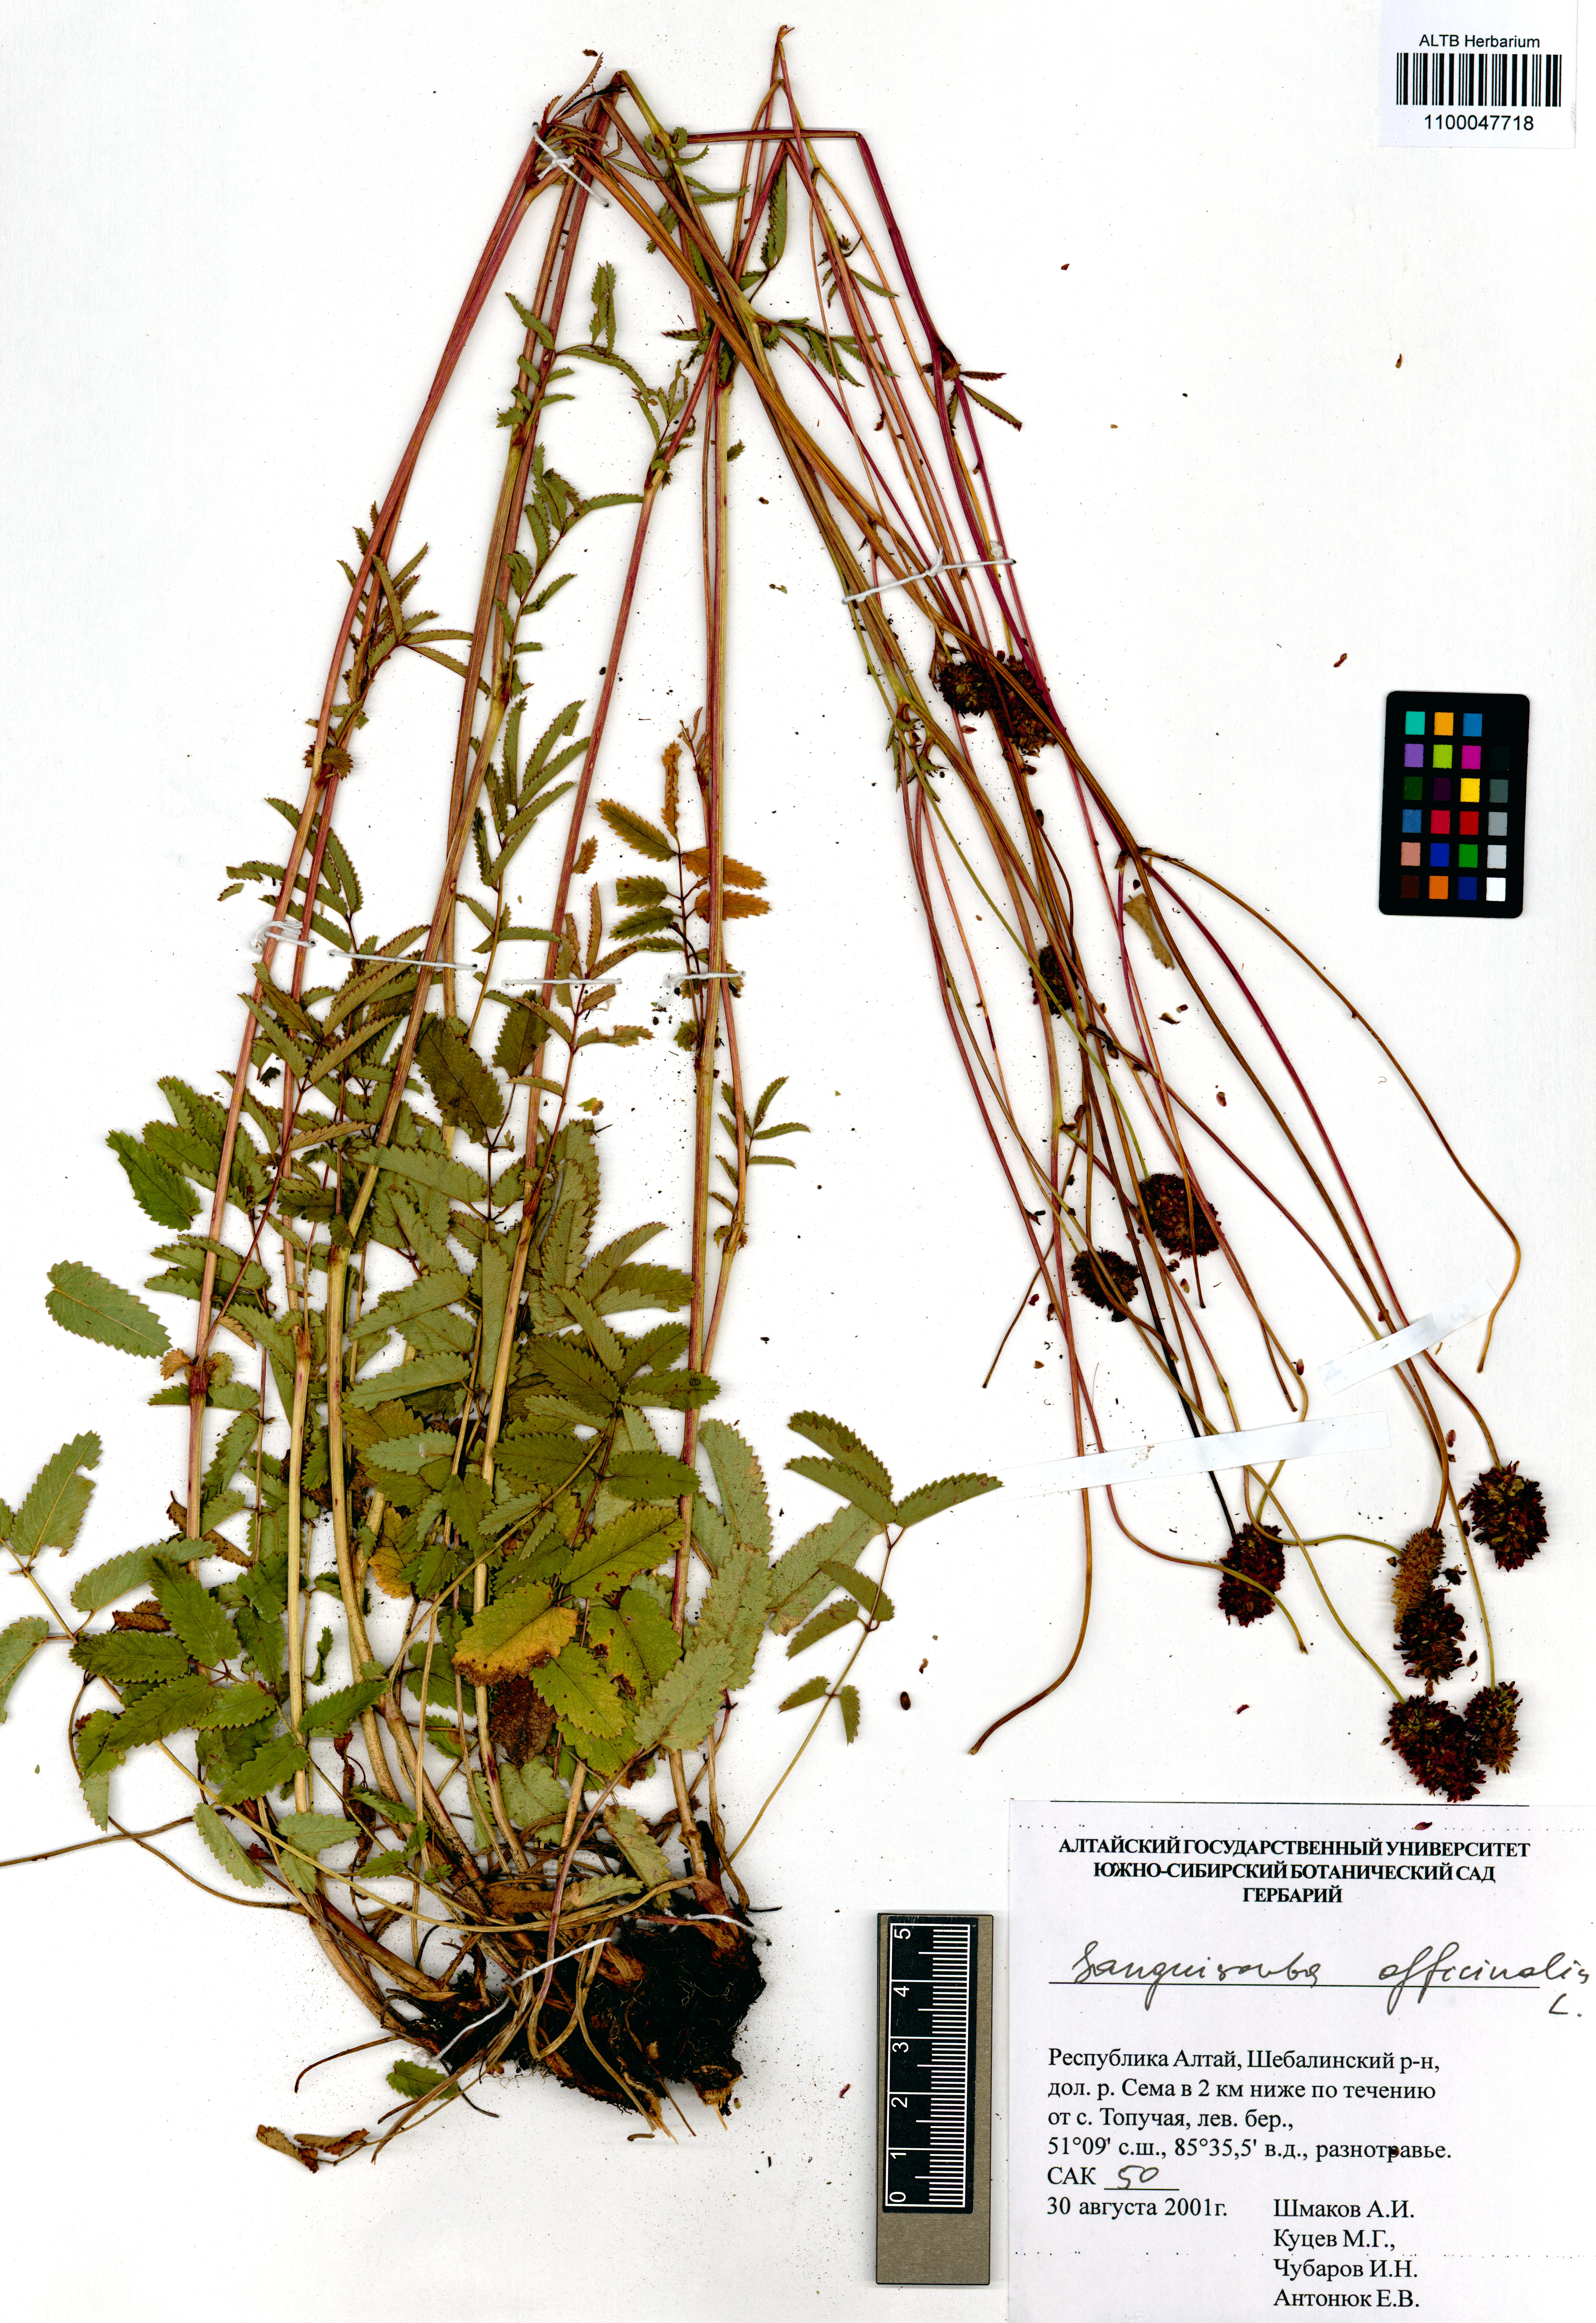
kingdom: Plantae
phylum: Tracheophyta
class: Magnoliopsida
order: Rosales
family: Rosaceae
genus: Sanguisorba
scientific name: Sanguisorba officinalis
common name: Great burnet
